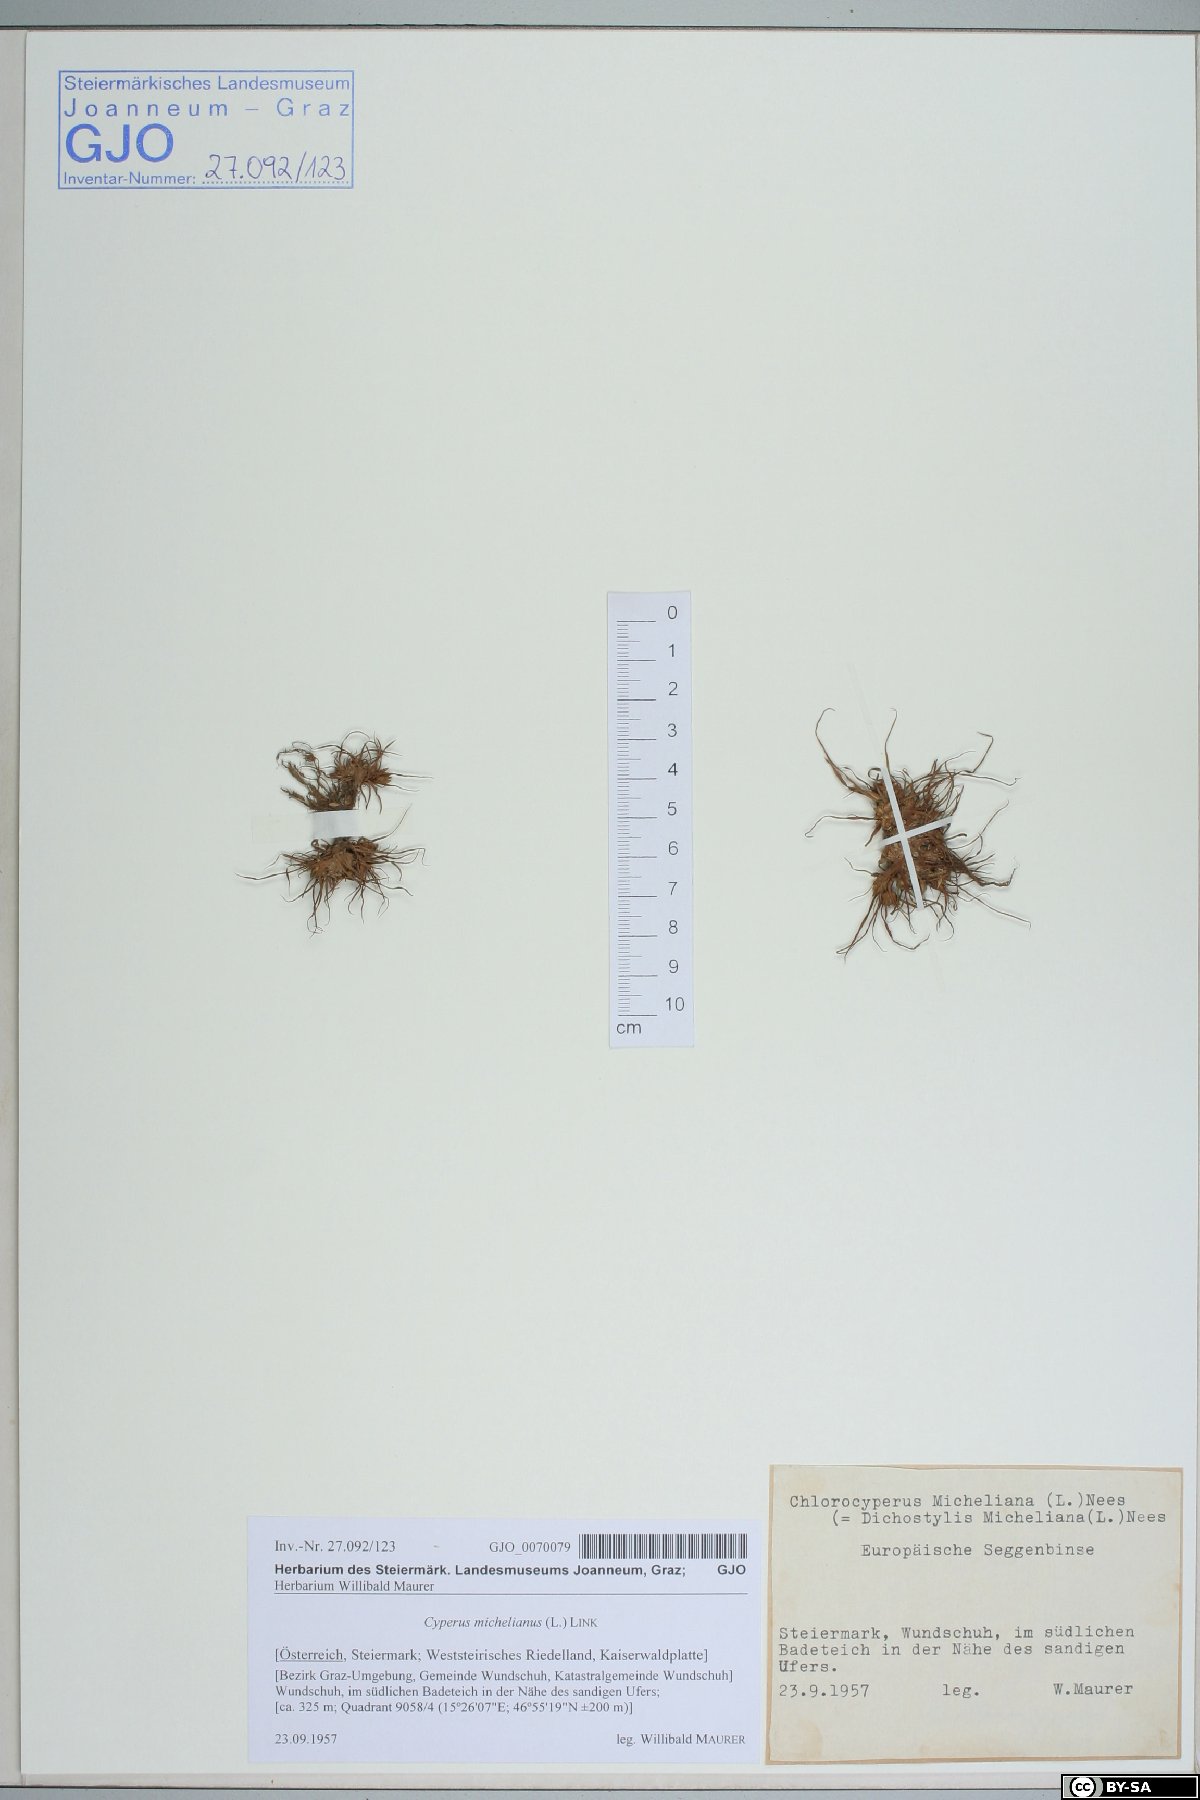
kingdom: Plantae
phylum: Tracheophyta
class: Liliopsida
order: Poales
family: Cyperaceae
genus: Cyperus
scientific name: Cyperus michelianus
